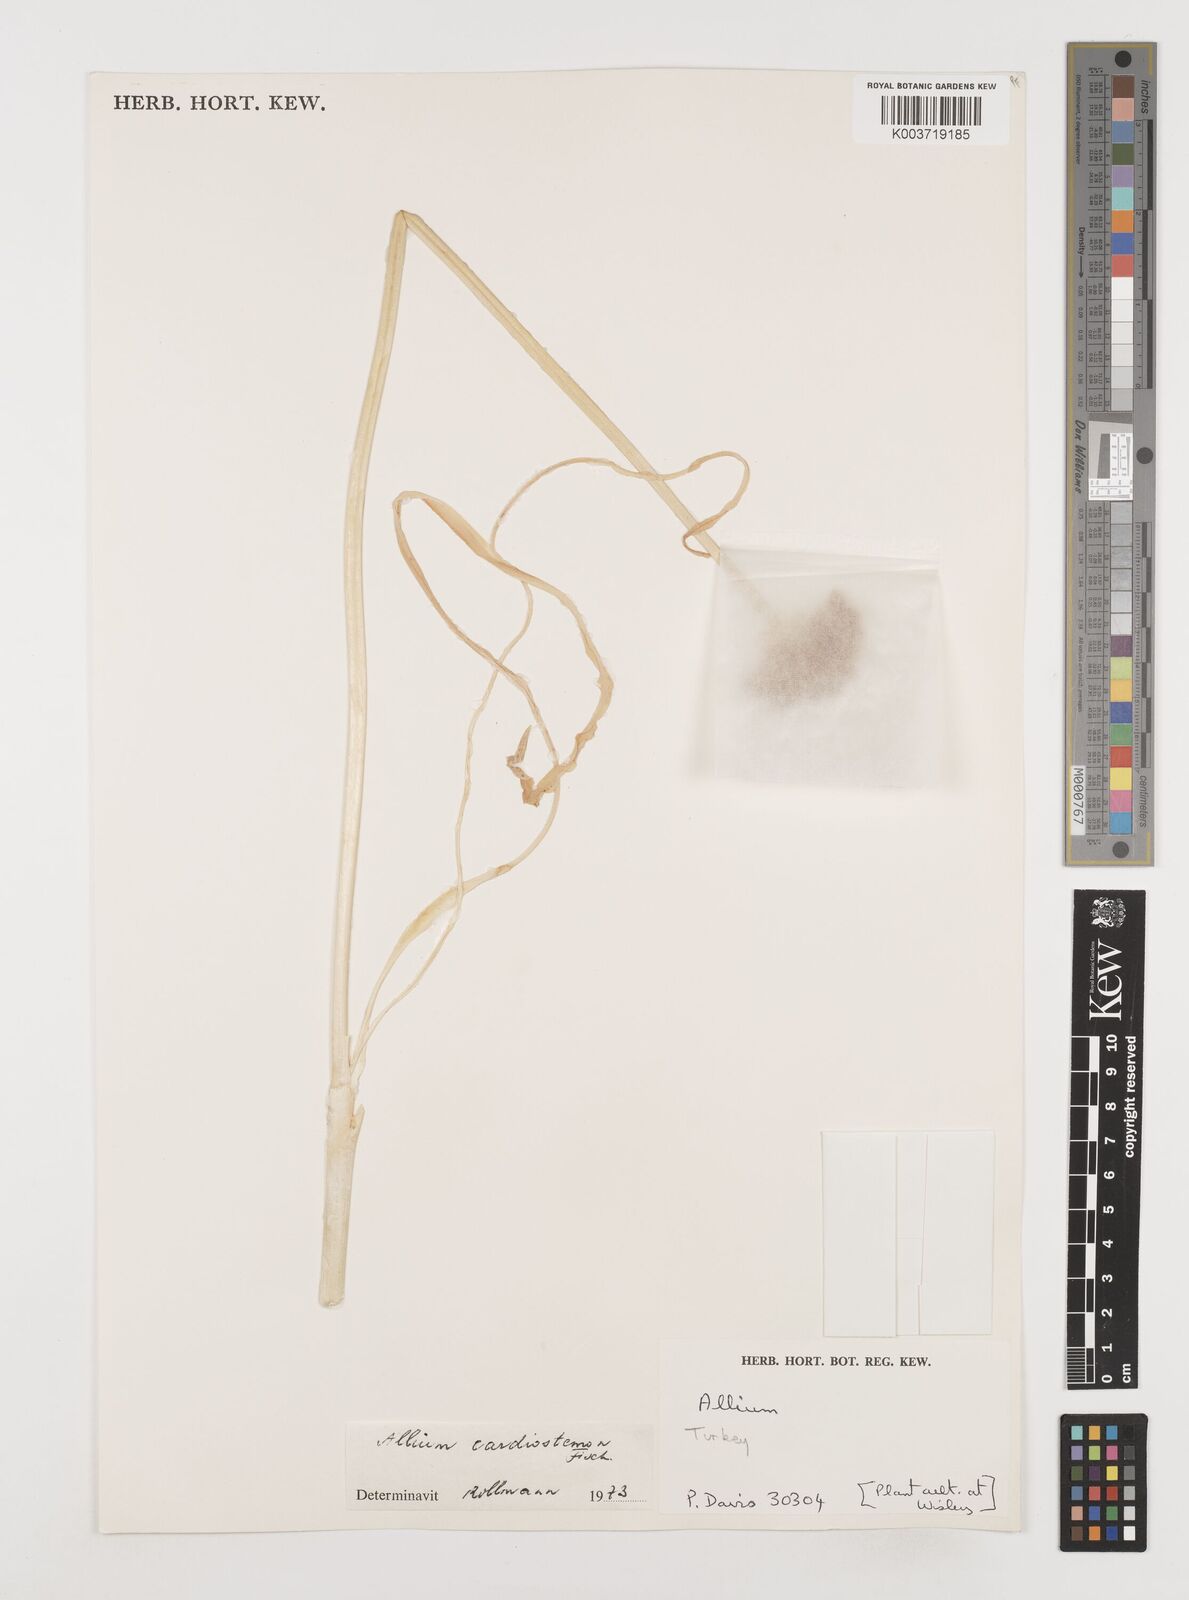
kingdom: Plantae
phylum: Tracheophyta
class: Liliopsida
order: Asparagales
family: Amaryllidaceae
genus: Allium
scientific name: Allium cardiostemon
